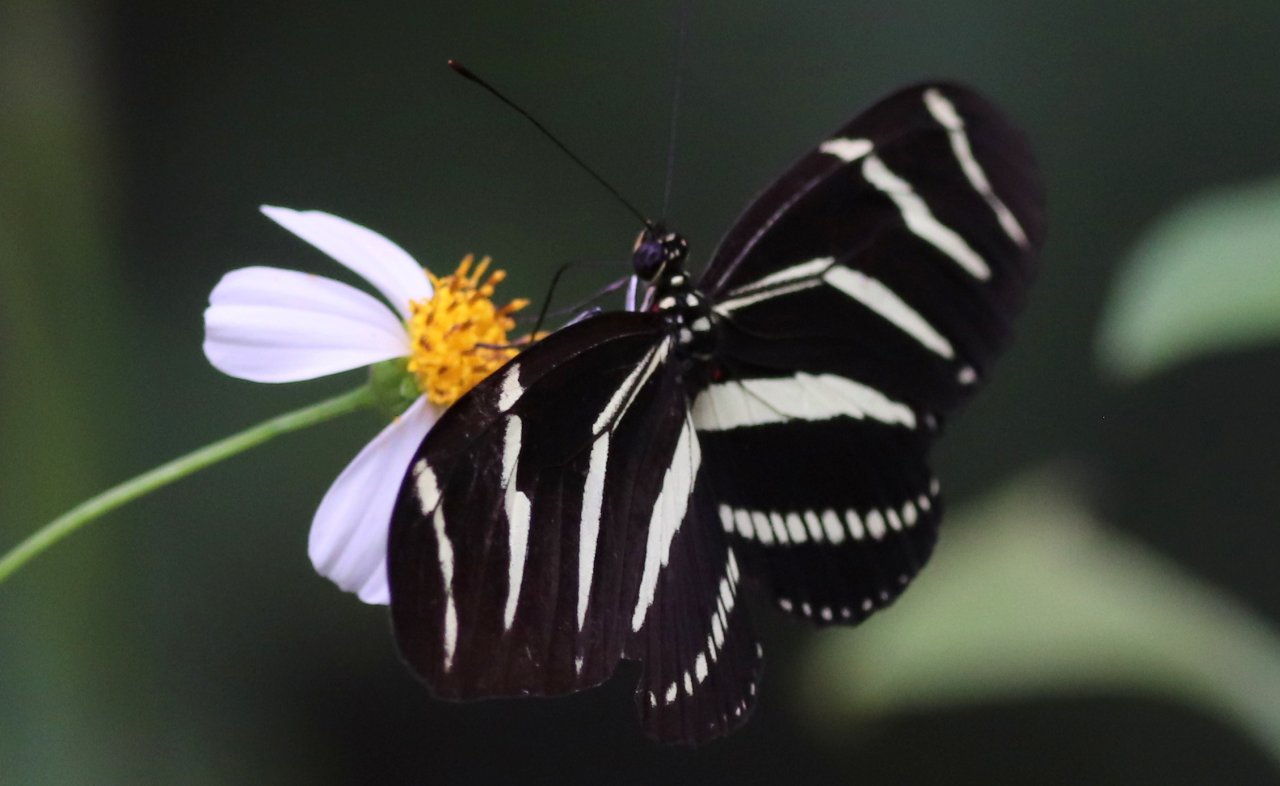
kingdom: Animalia
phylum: Arthropoda
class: Insecta
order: Lepidoptera
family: Nymphalidae
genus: Heliconius
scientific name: Heliconius charithonia
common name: Zebra Longwing
